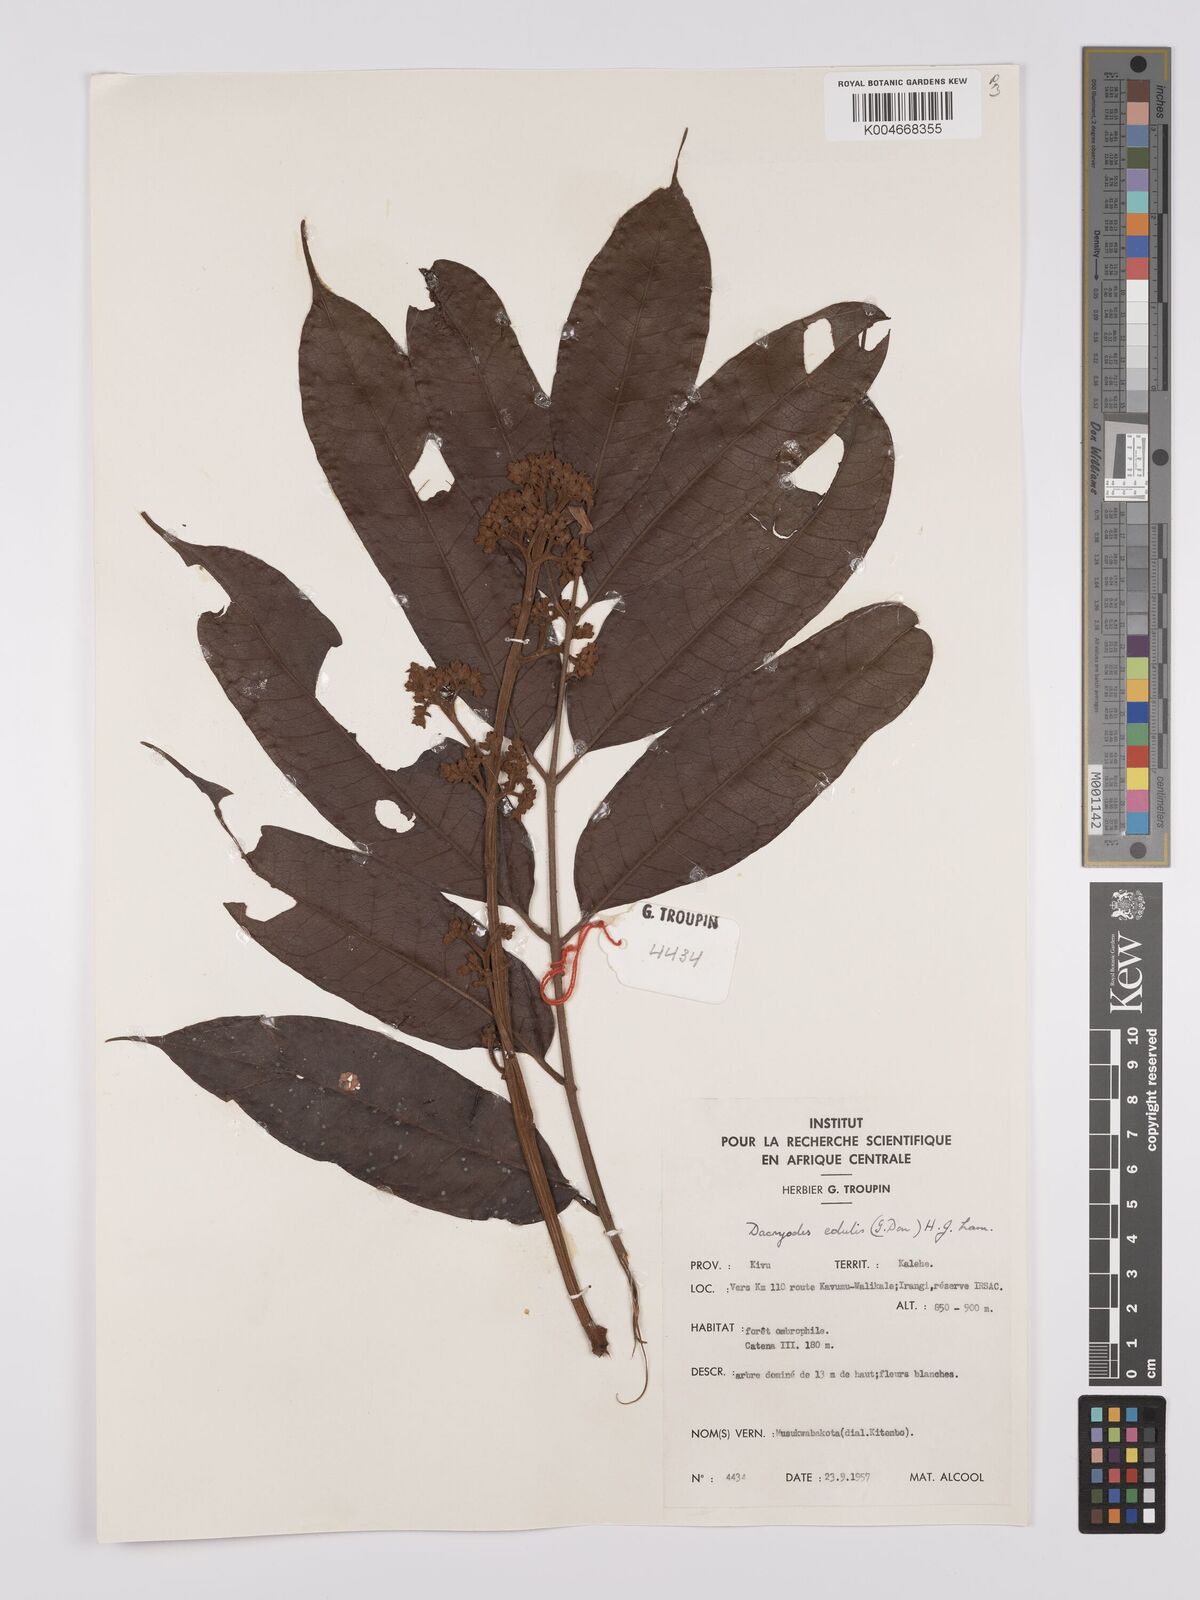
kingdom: Plantae
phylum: Tracheophyta
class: Magnoliopsida
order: Sapindales
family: Burseraceae
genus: Pachylobus
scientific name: Pachylobus edulis
